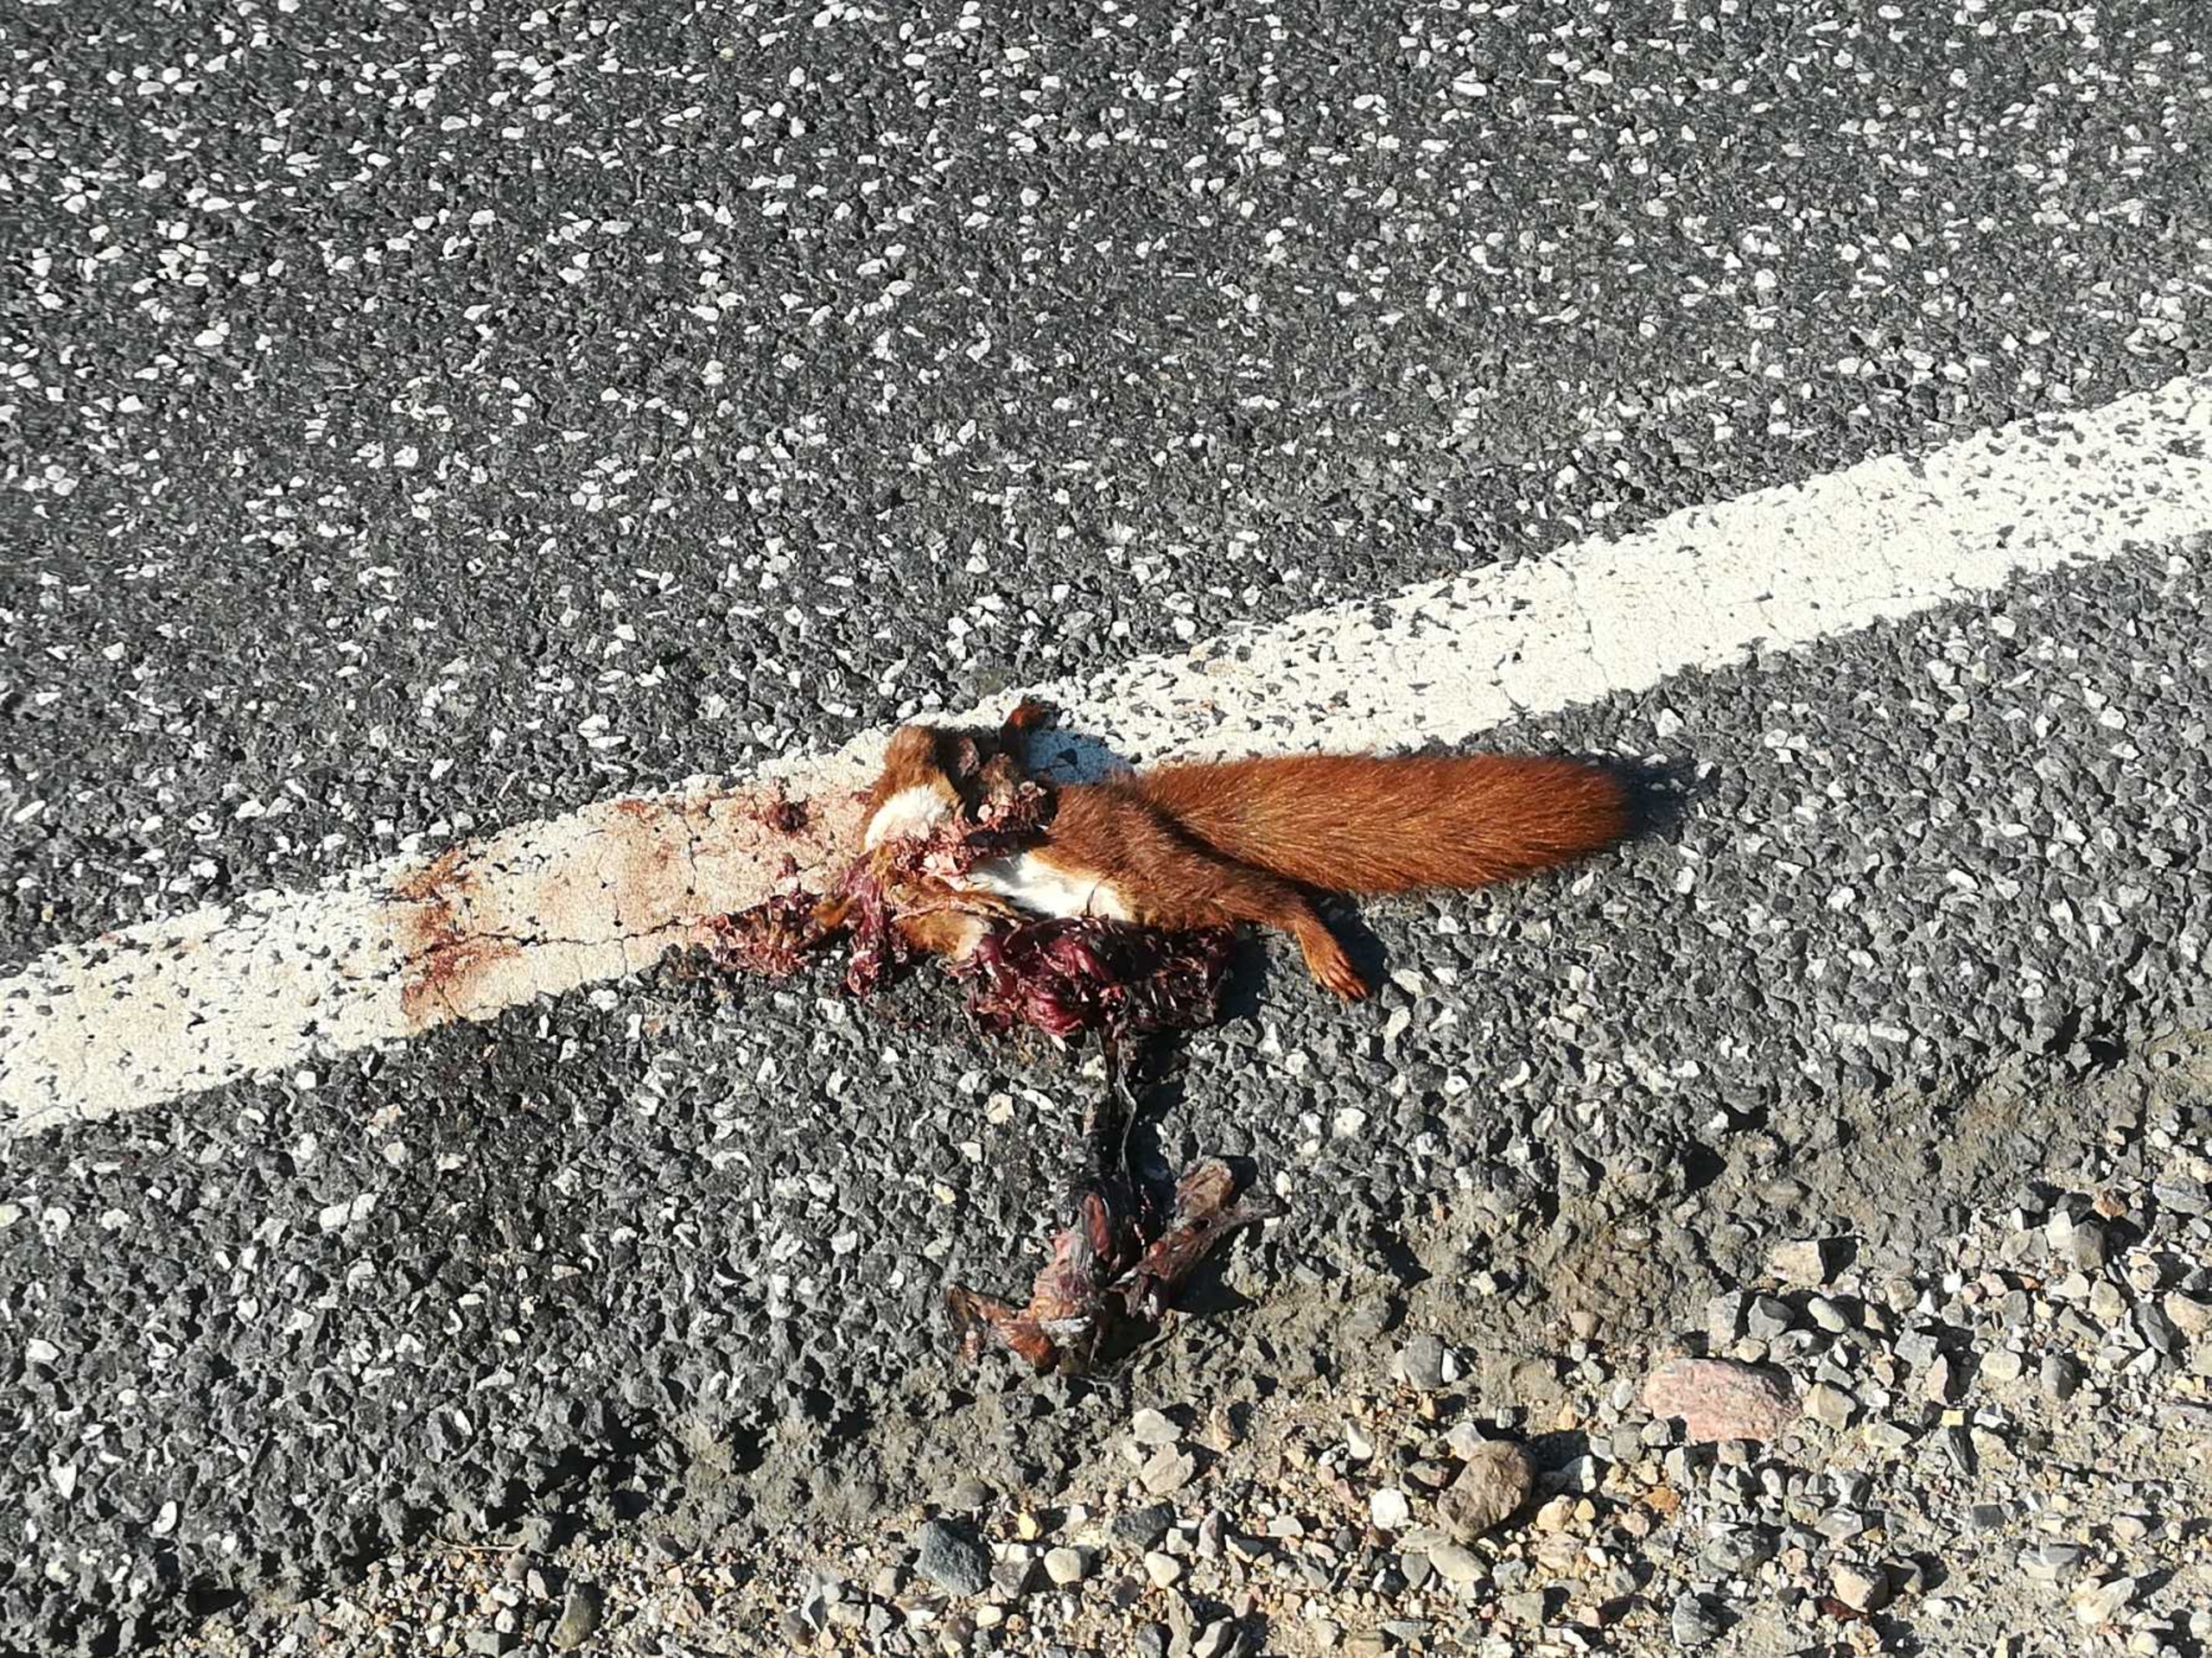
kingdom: Animalia
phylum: Chordata
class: Mammalia
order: Rodentia
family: Sciuridae
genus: Sciurus
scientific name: Sciurus vulgaris
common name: Egern
